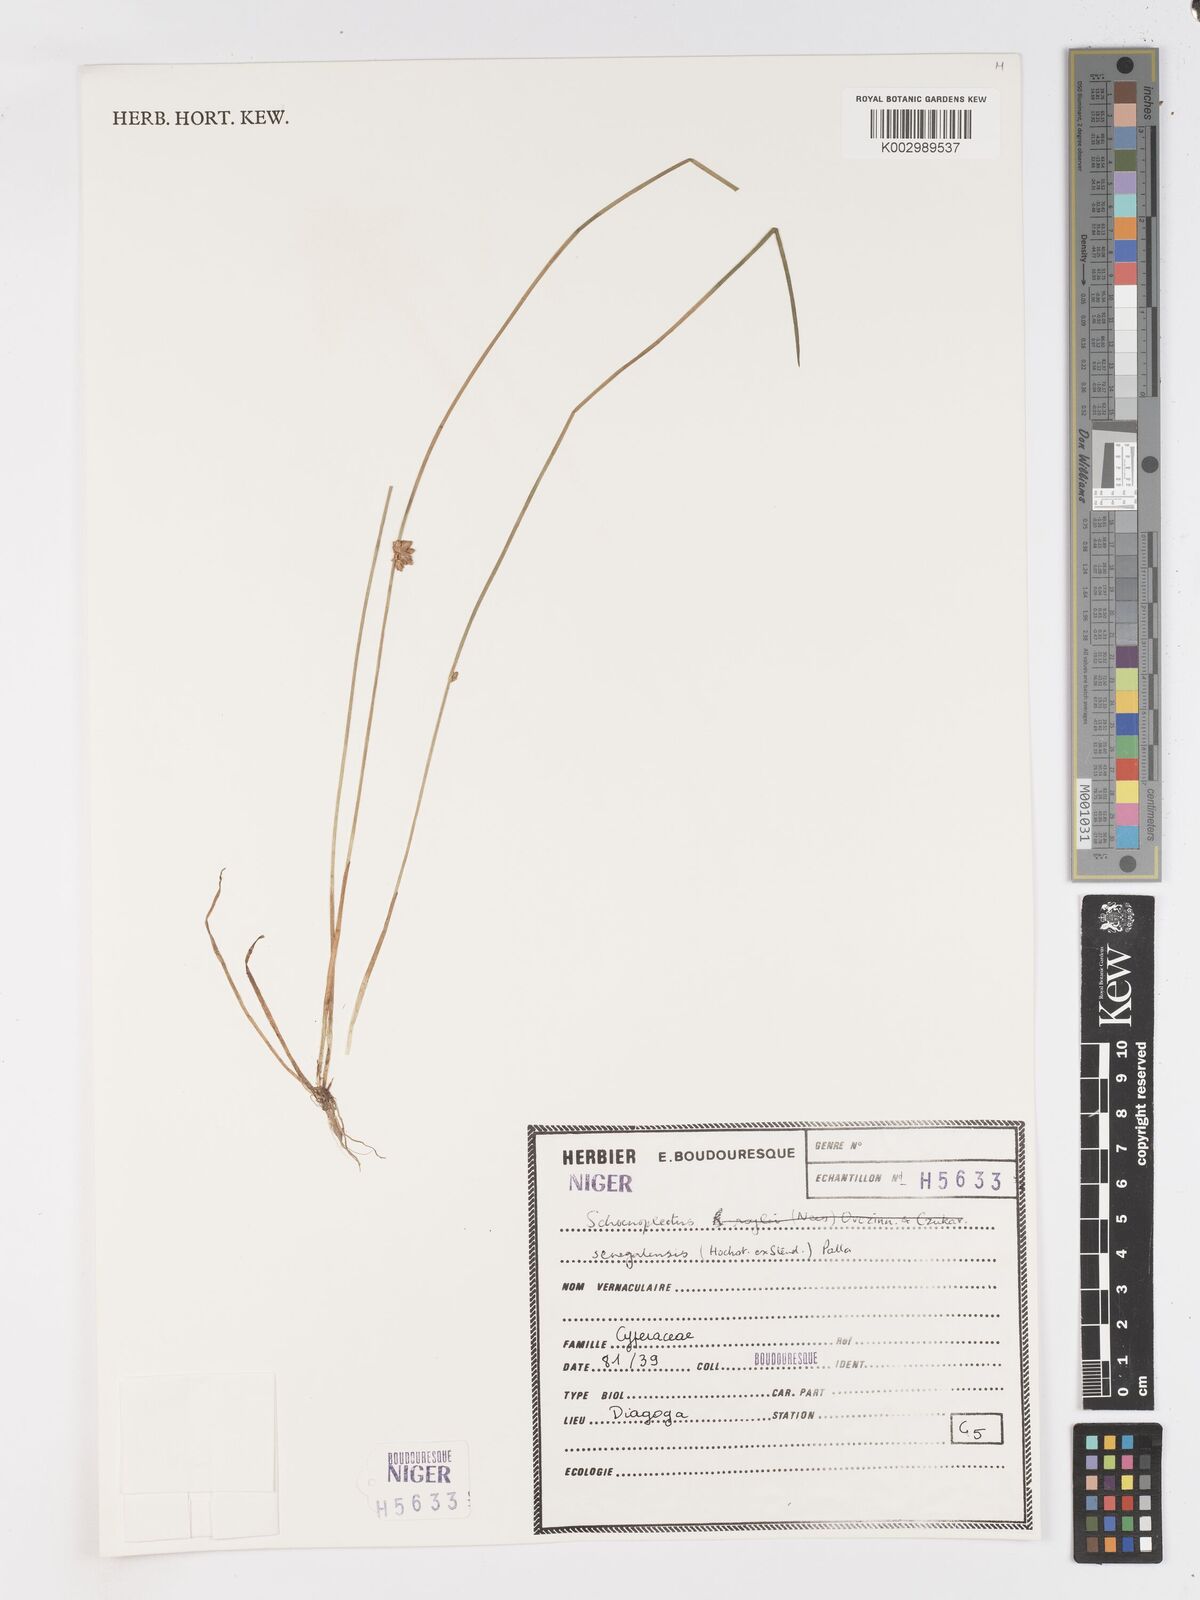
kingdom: Plantae
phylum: Tracheophyta
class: Liliopsida
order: Poales
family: Cyperaceae
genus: Schoenoplectiella
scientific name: Schoenoplectiella praelongata
